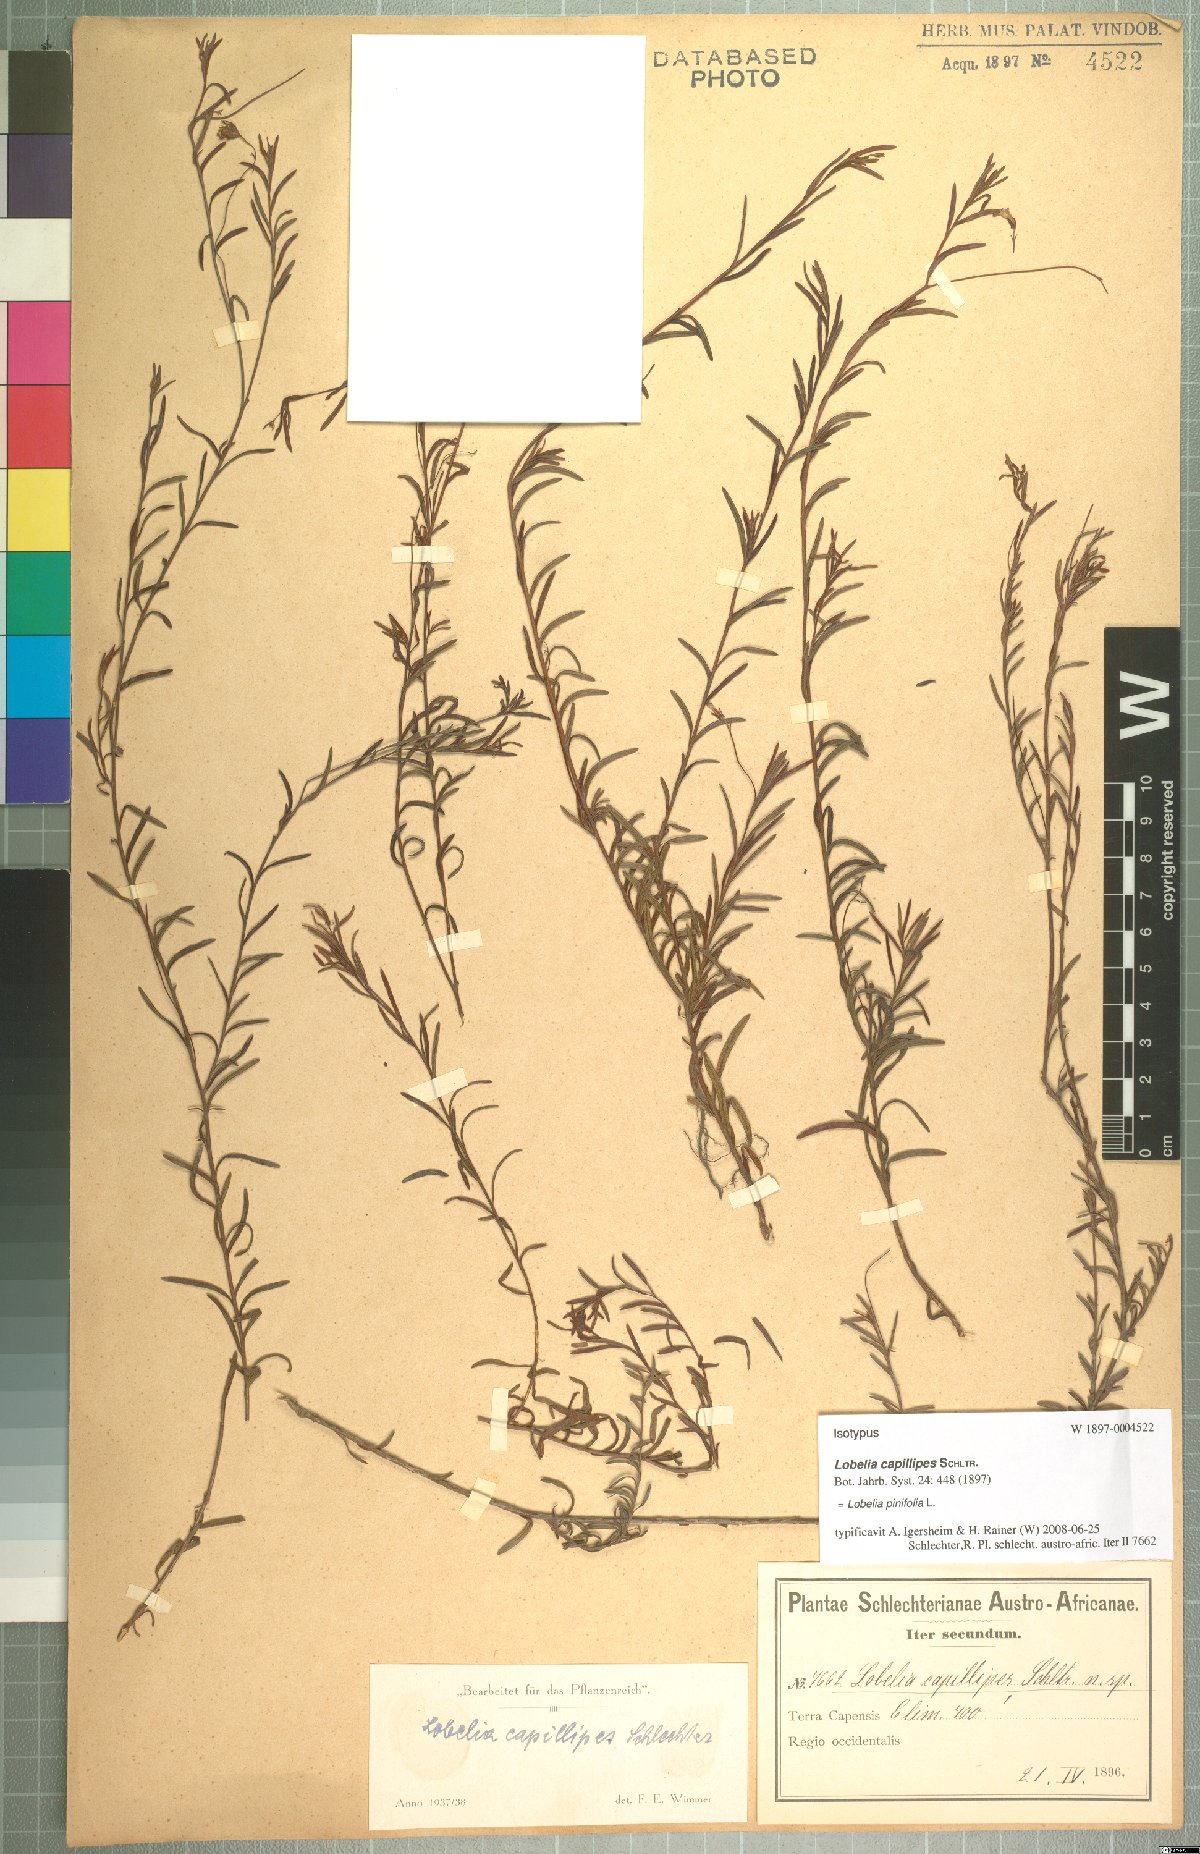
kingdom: Plantae
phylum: Tracheophyta
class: Magnoliopsida
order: Asterales
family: Campanulaceae
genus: Lobelia
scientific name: Lobelia pinifolia
